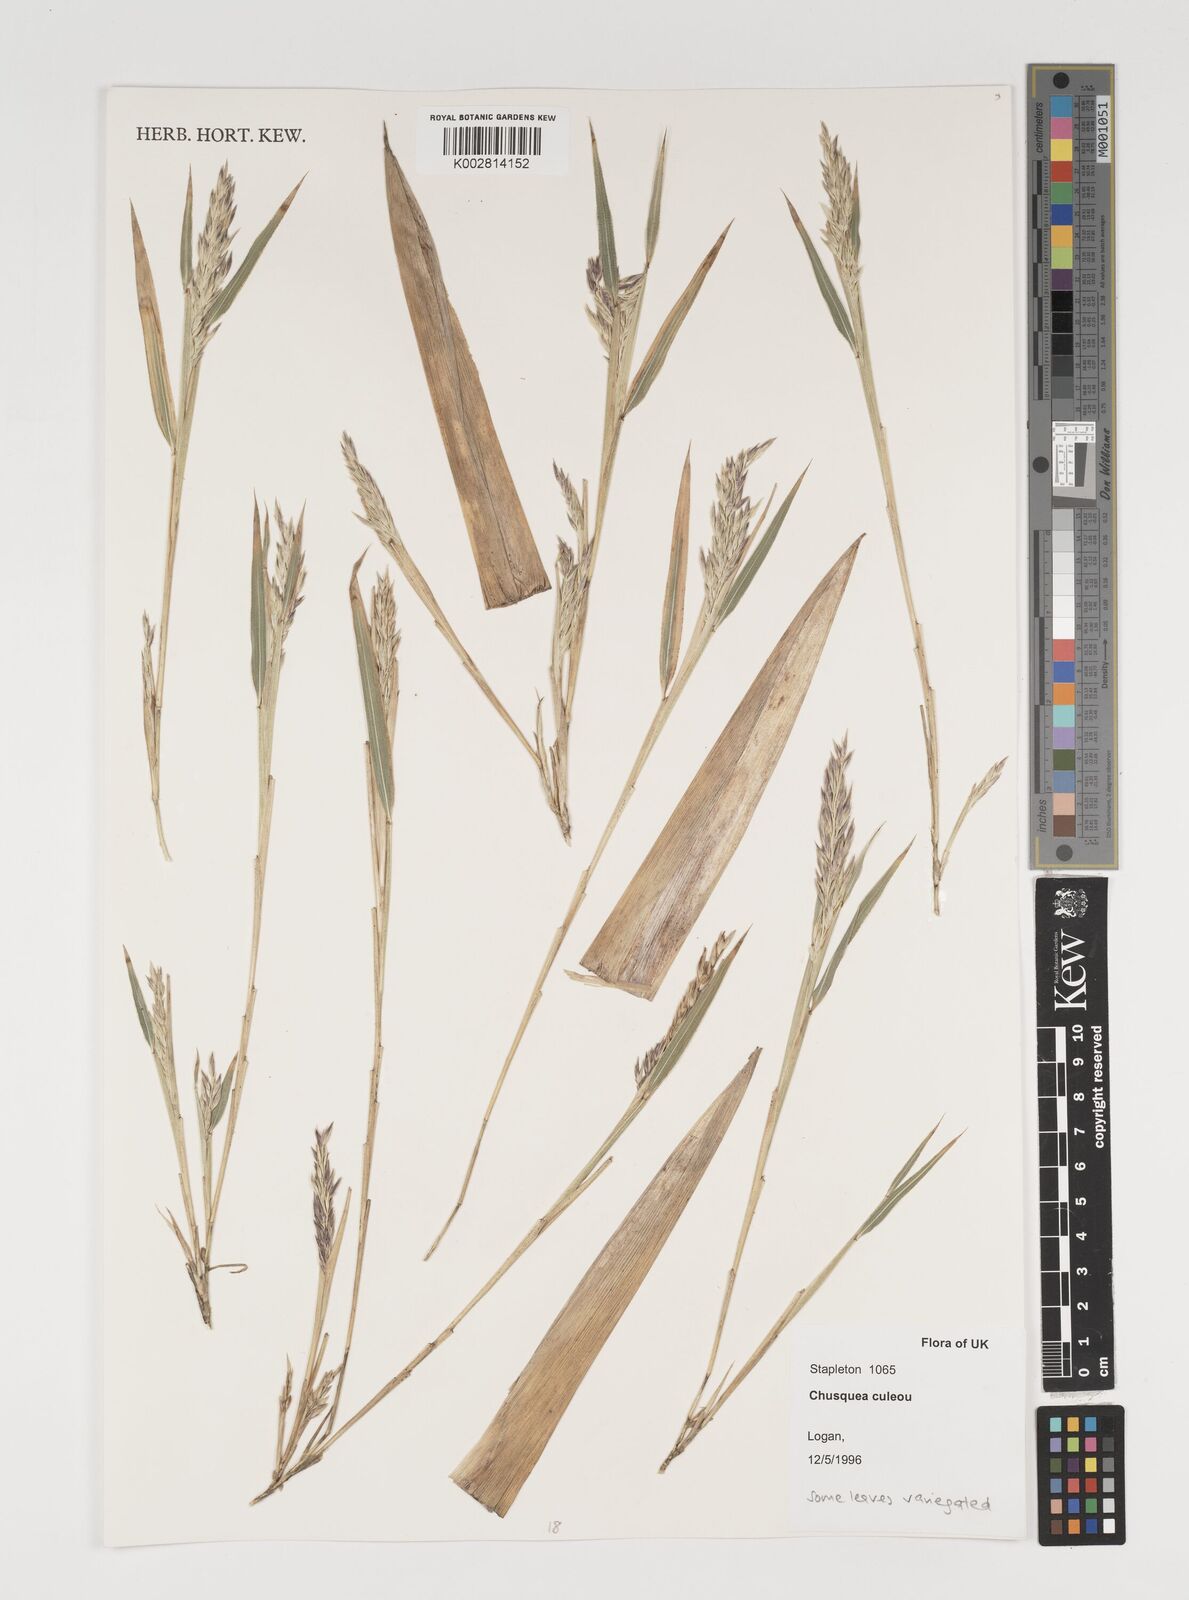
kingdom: Plantae
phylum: Tracheophyta
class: Liliopsida
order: Poales
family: Poaceae
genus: Chusquea
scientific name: Chusquea culeou
